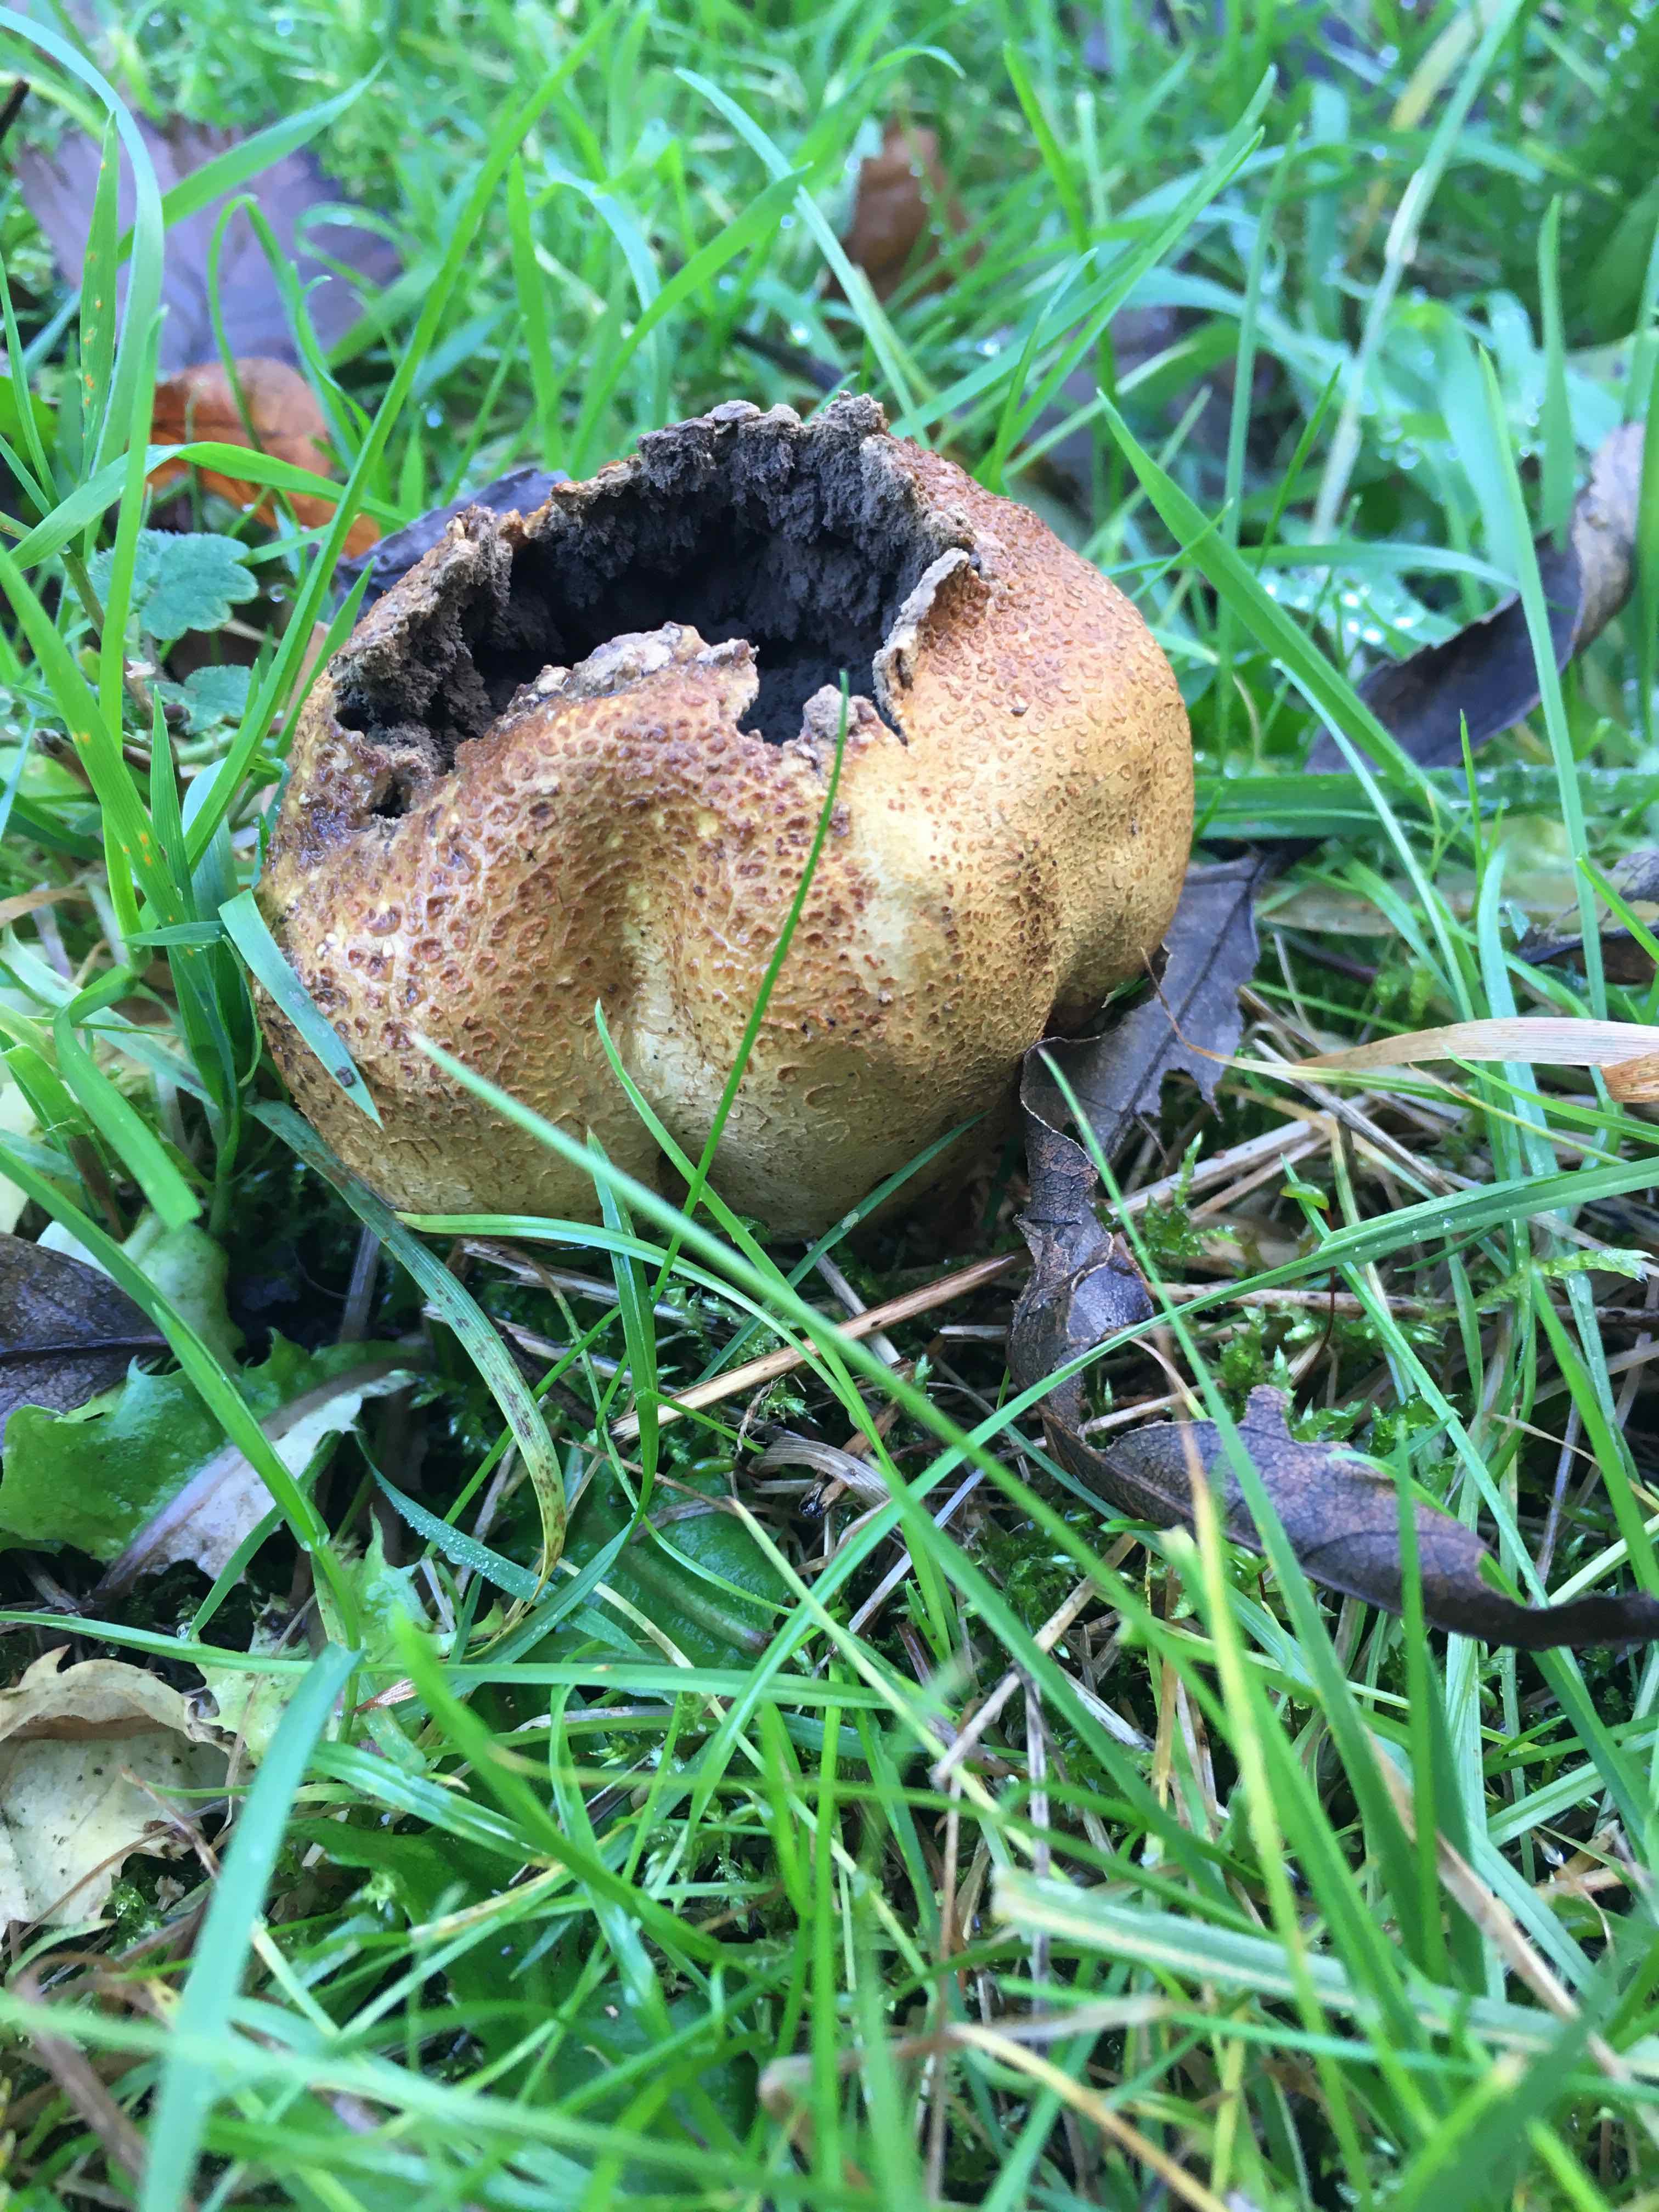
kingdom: Fungi
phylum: Basidiomycota
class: Agaricomycetes
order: Boletales
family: Sclerodermataceae
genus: Scleroderma
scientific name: Scleroderma citrinum
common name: almindelig bruskbold
